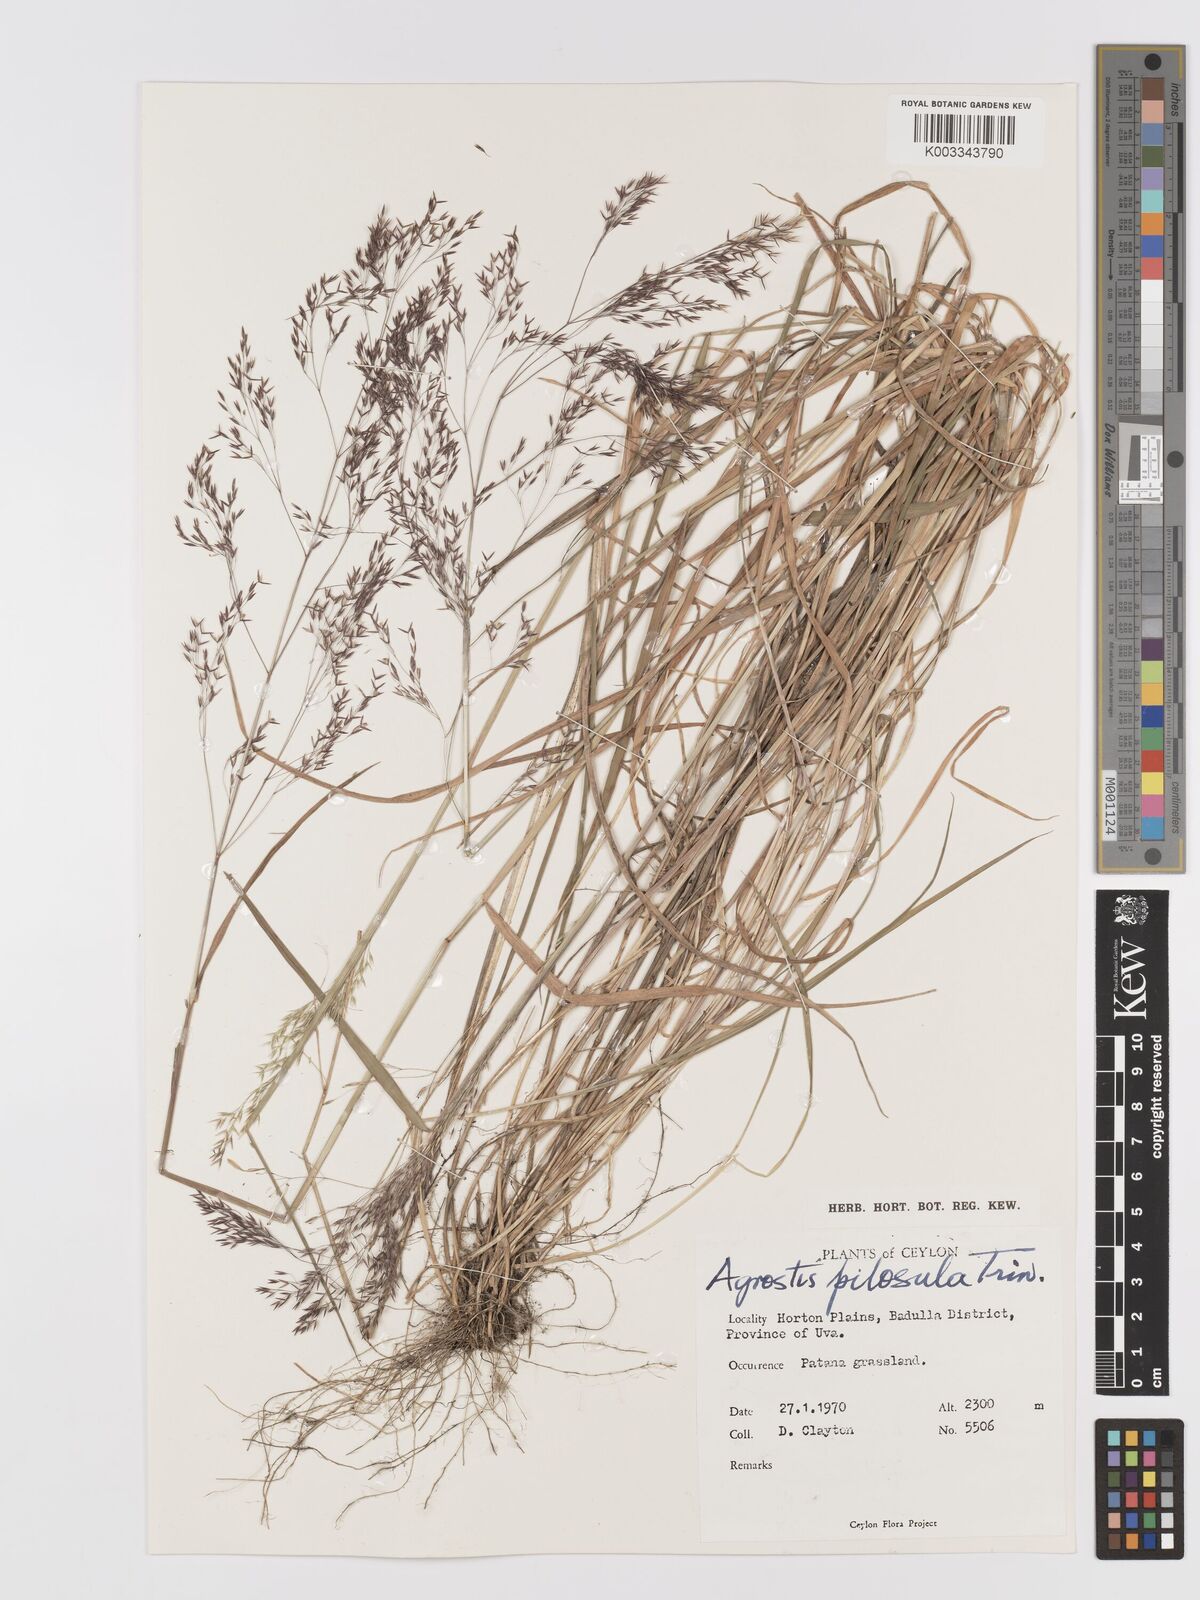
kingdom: Plantae
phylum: Tracheophyta
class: Liliopsida
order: Poales
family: Poaceae
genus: Agrostis
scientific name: Agrostis pilosula
